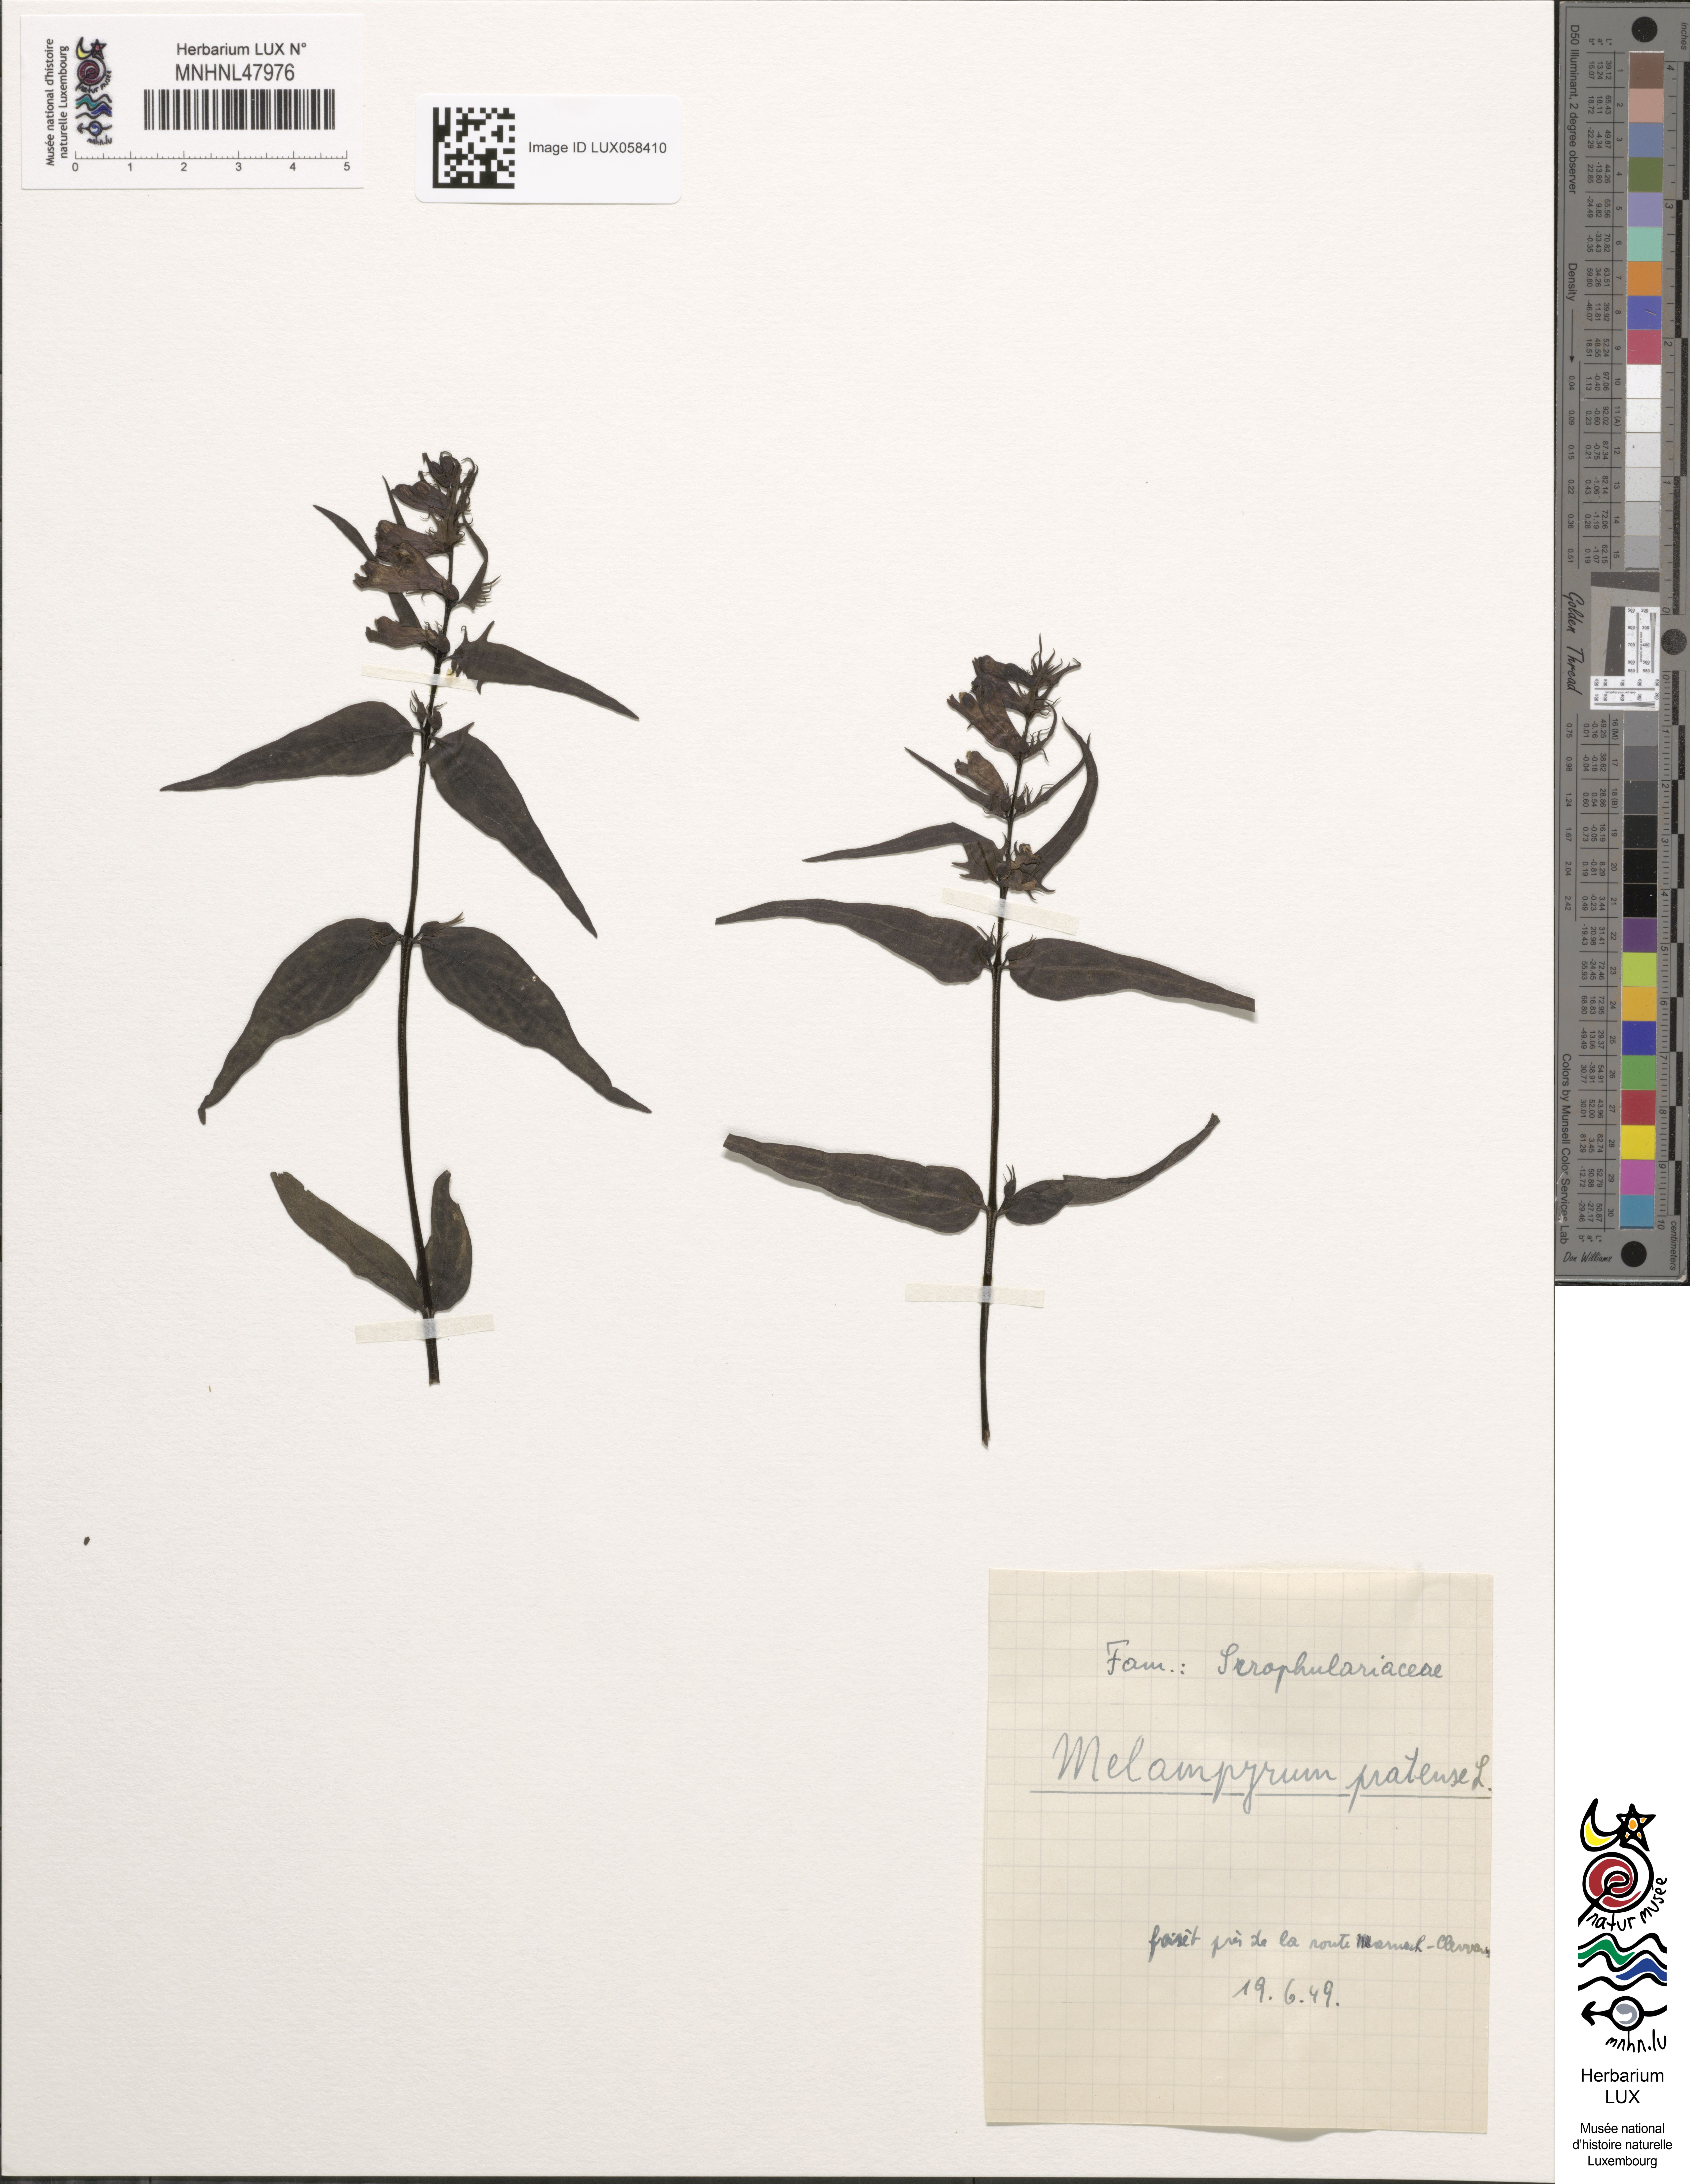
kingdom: Plantae
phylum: Tracheophyta
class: Magnoliopsida
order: Lamiales
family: Orobanchaceae
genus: Melampyrum
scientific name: Melampyrum pratense
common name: Common cow-wheat
